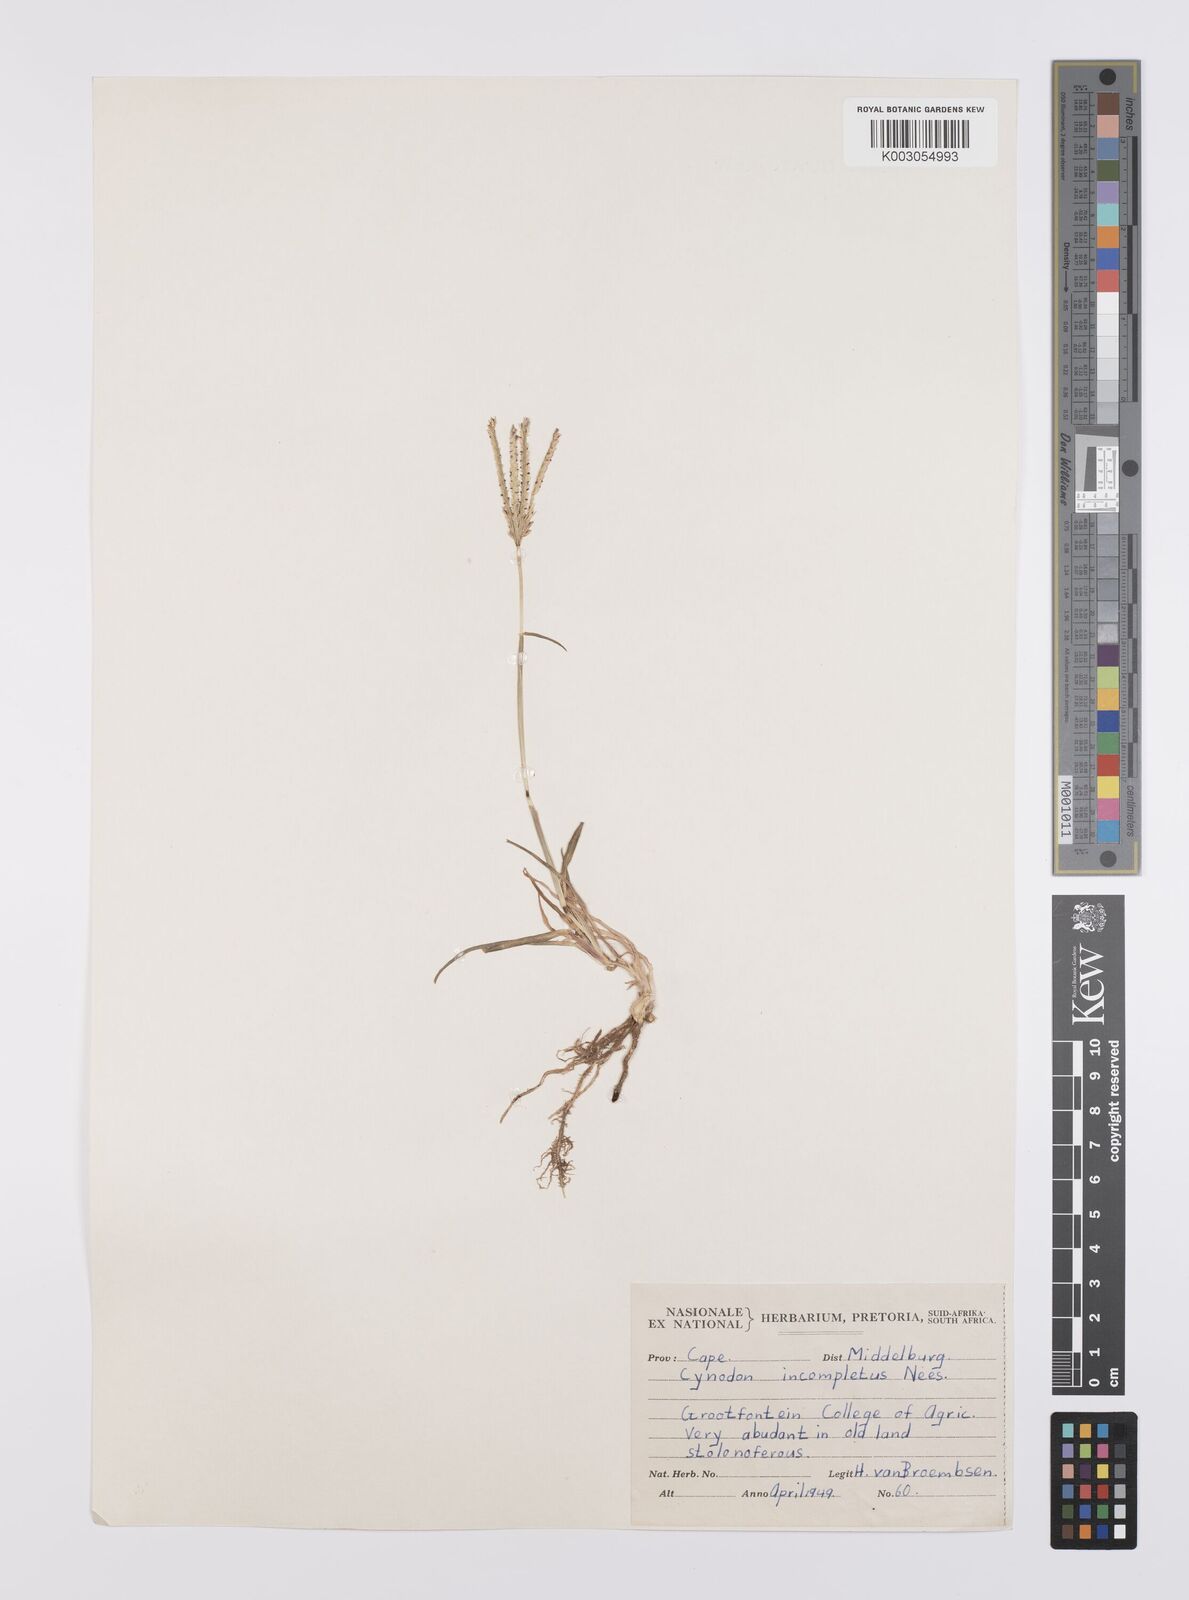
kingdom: Plantae
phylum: Tracheophyta
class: Liliopsida
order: Poales
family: Poaceae
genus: Cynodon
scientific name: Cynodon incompletus
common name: African bermuda-grass
